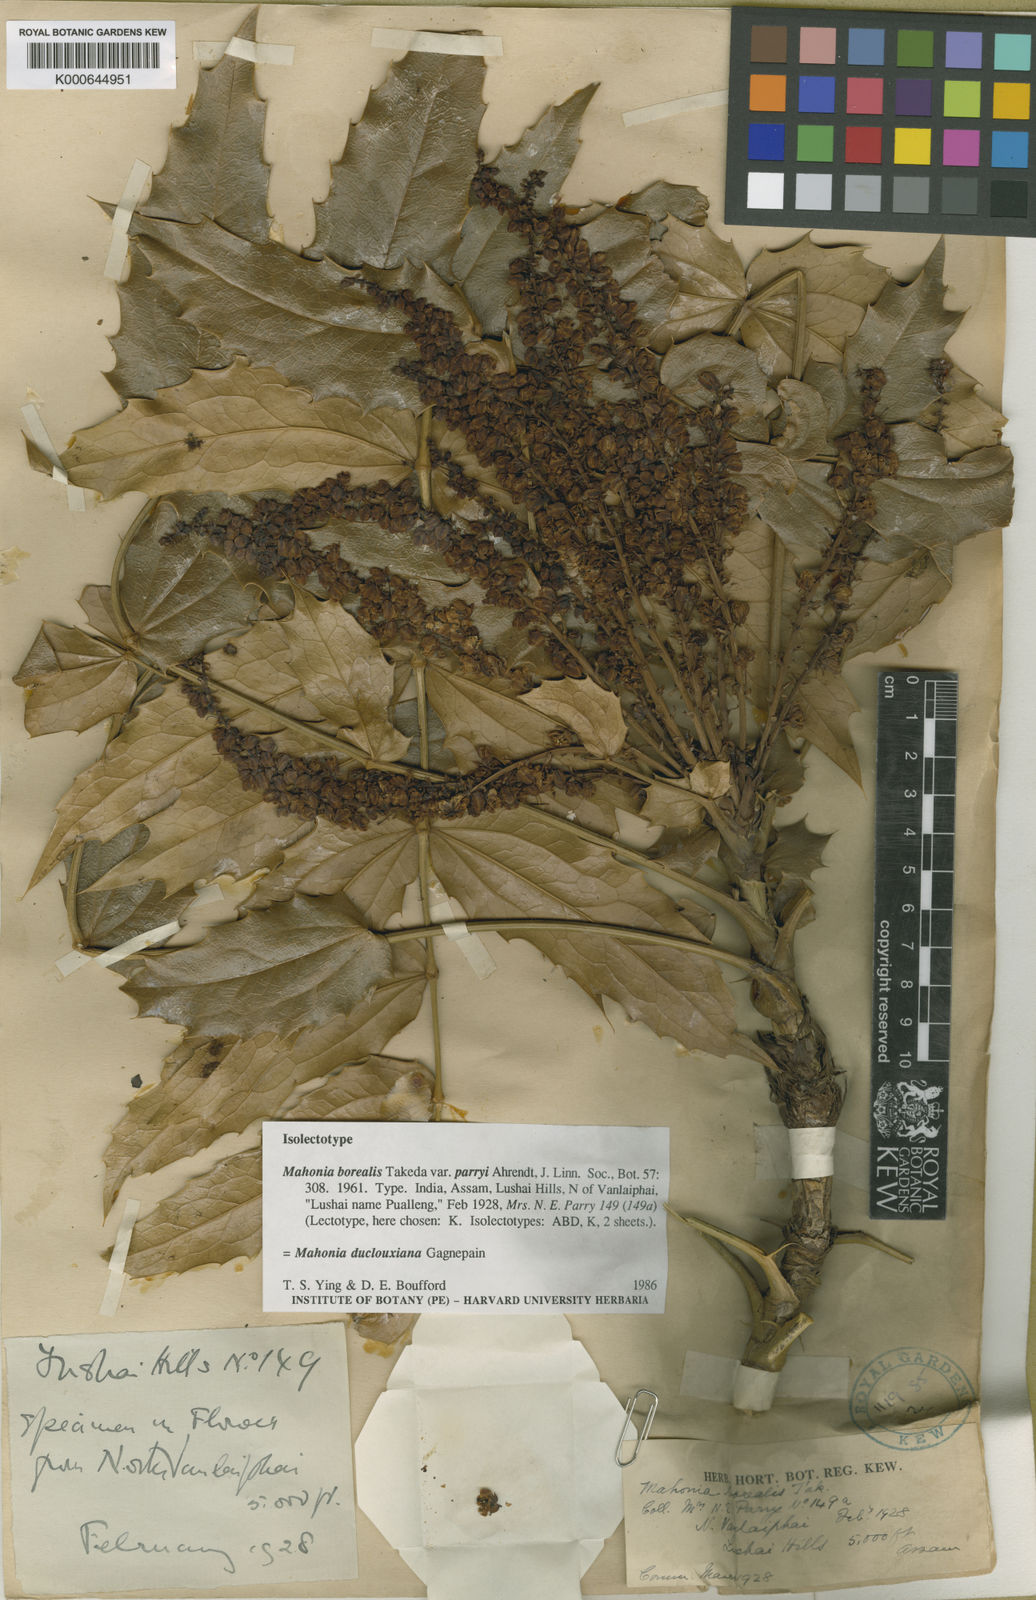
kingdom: Plantae
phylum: Tracheophyta
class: Magnoliopsida
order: Ranunculales
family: Berberidaceae
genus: Mahonia
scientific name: Mahonia napaulensis
